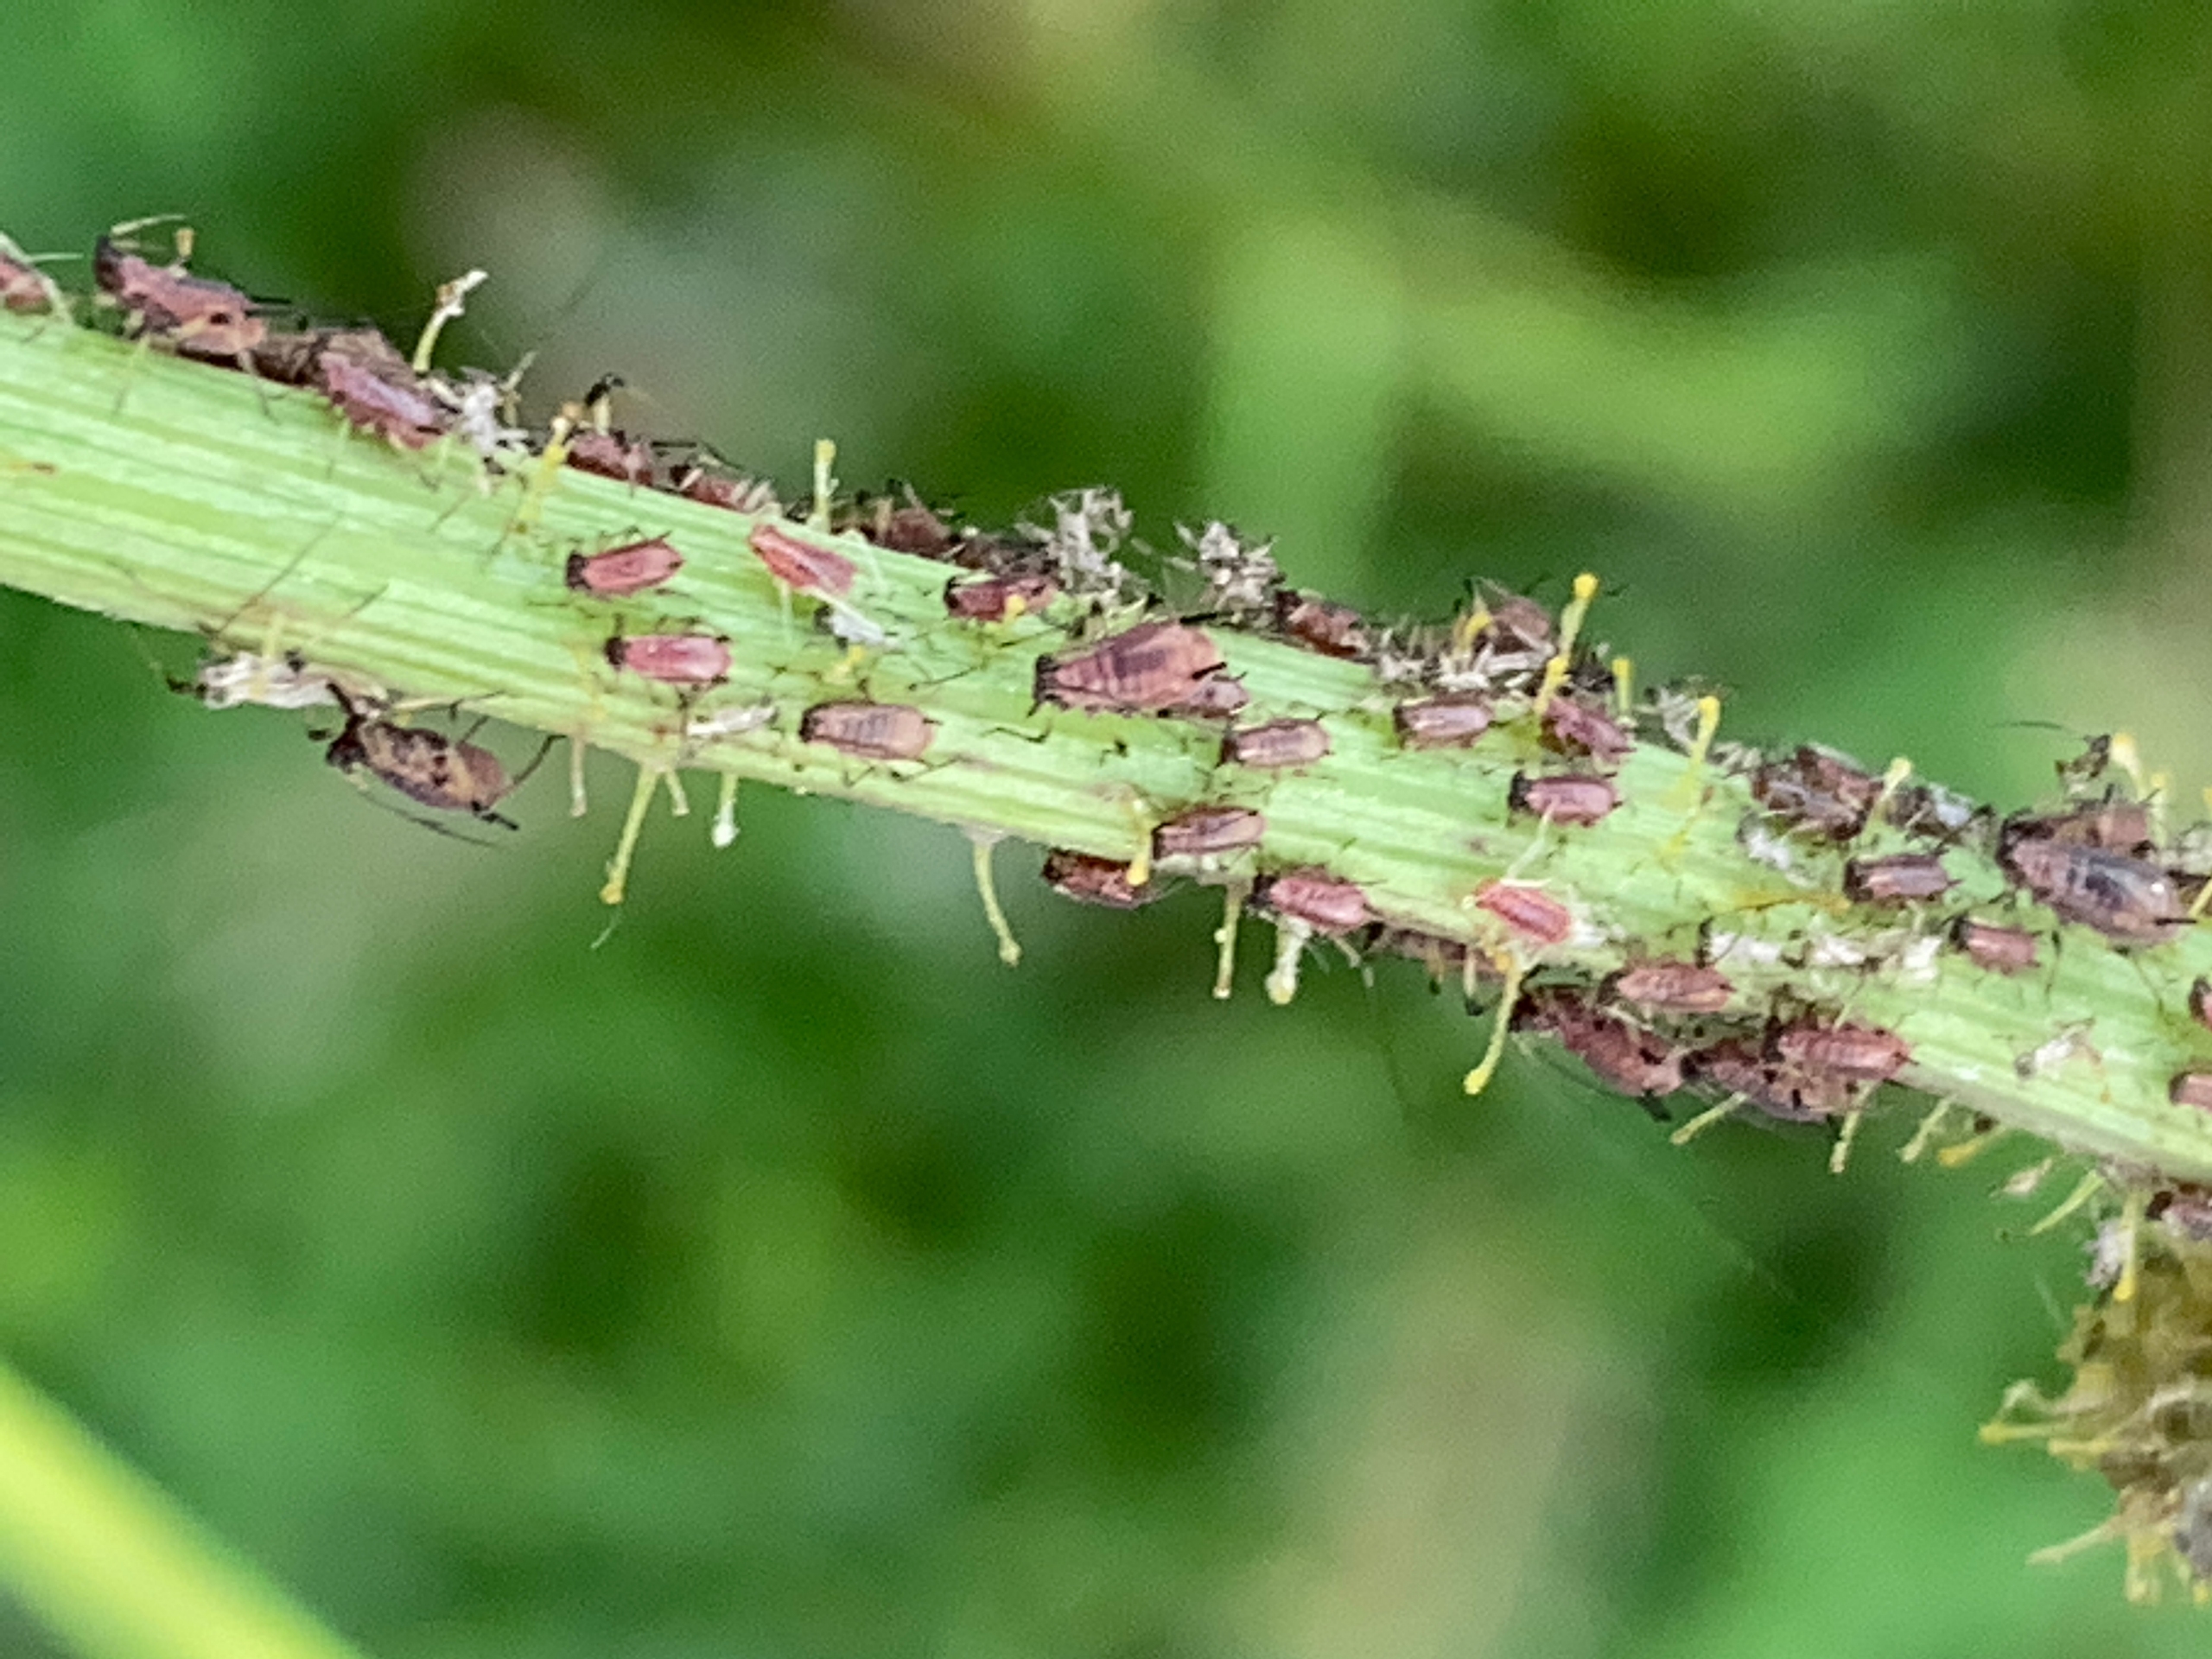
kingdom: Animalia
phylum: Arthropoda
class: Insecta
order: Hemiptera
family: Aphididae
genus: Uroleucon
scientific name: Uroleucon sonchi
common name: Brun svinemælkbladlus
